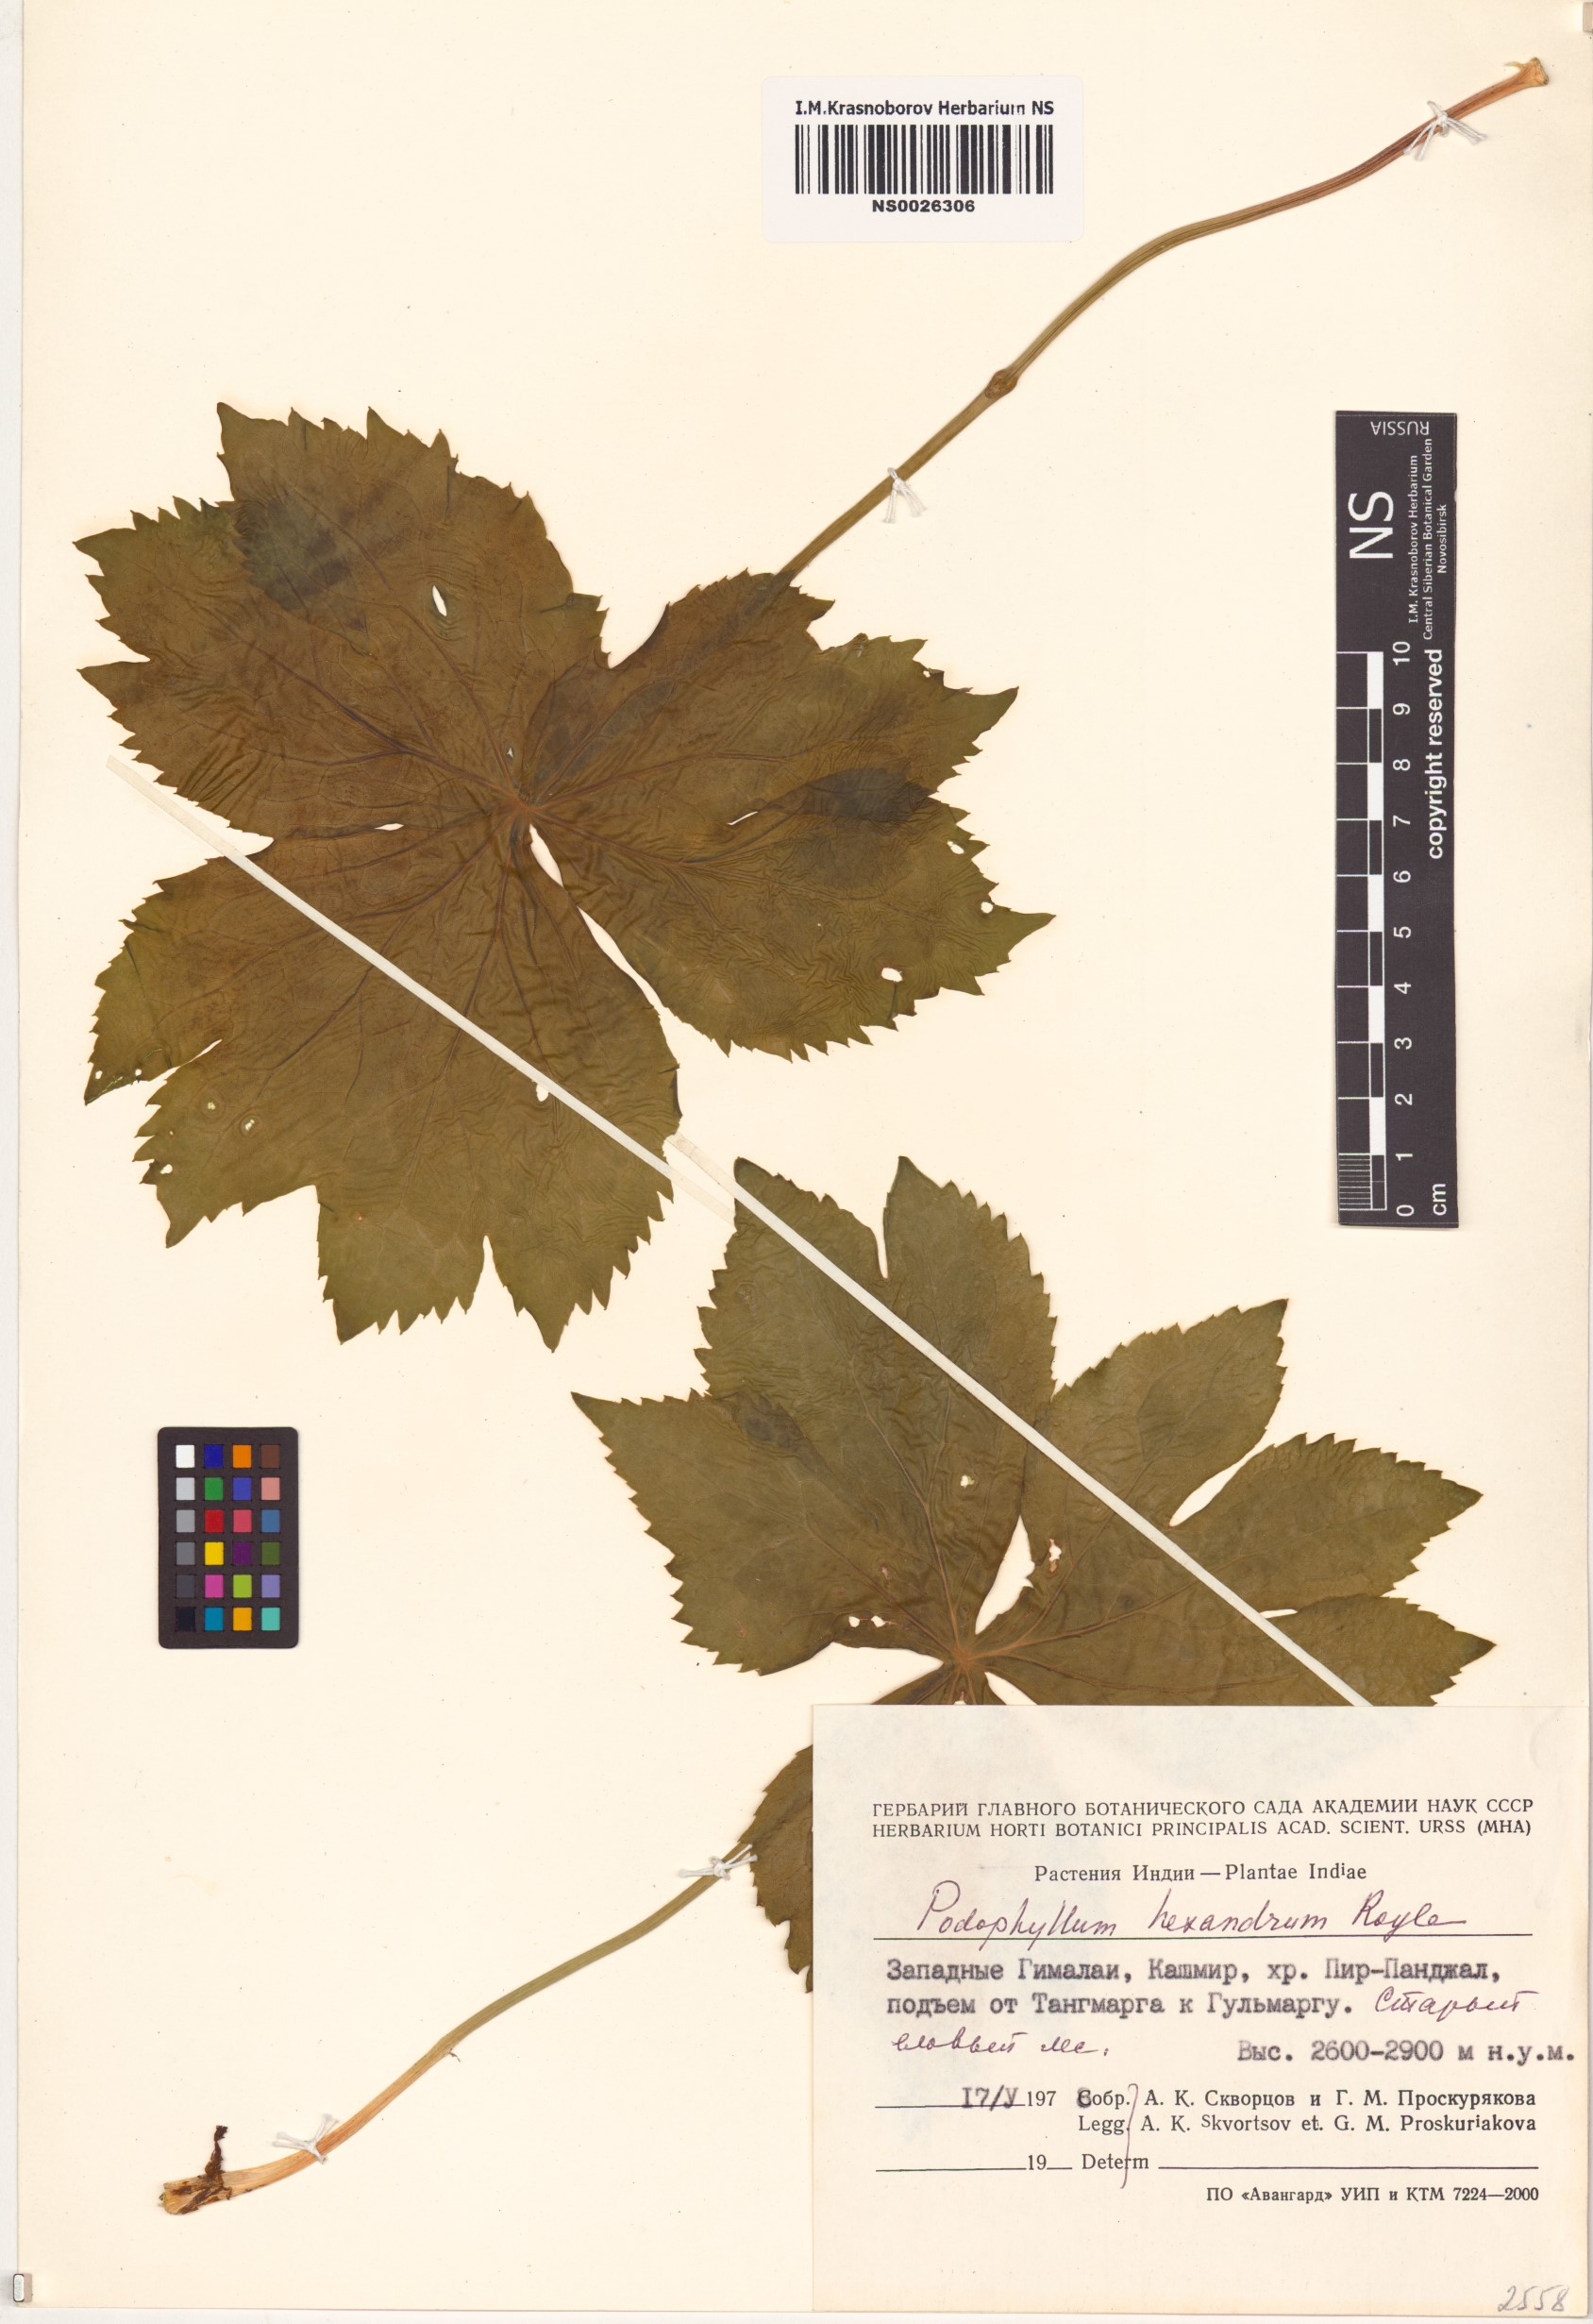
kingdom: Plantae
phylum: Tracheophyta
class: Magnoliopsida
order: Ranunculales
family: Berberidaceae
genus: Sinopodophyllum
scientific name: Sinopodophyllum hexandrum
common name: Himalayan may-apple
